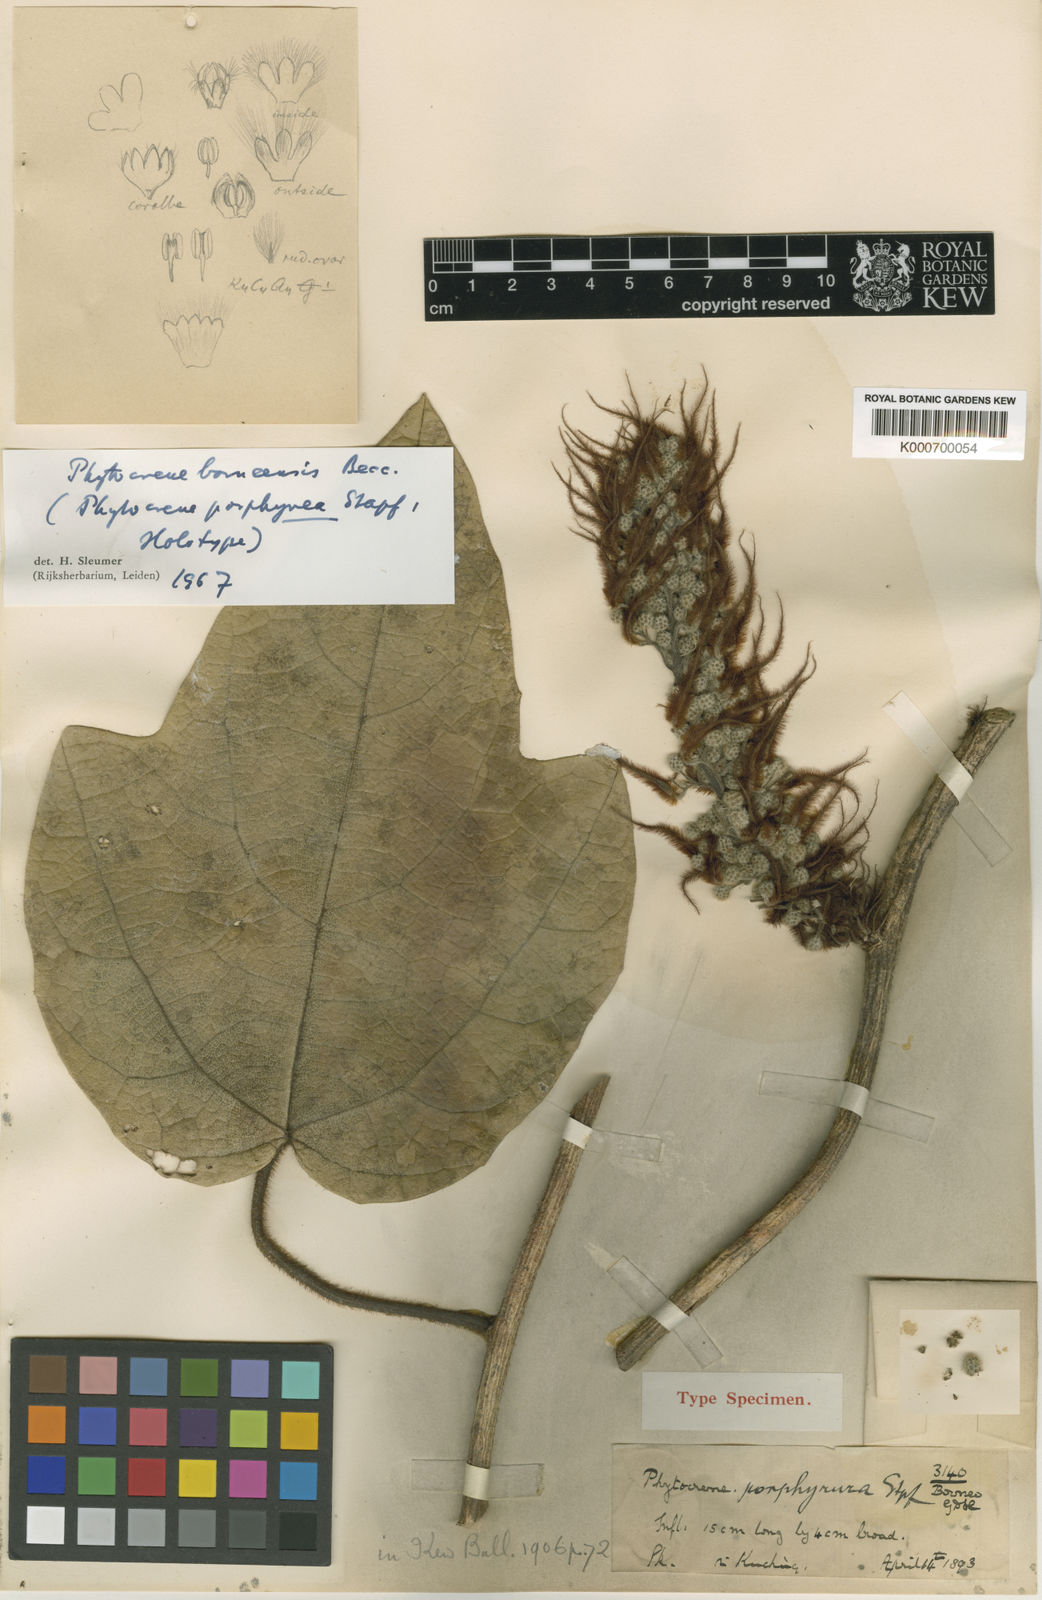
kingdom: Plantae
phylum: Tracheophyta
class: Magnoliopsida
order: Icacinales
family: Icacinaceae
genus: Phytocrene
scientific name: Phytocrene borneensis
